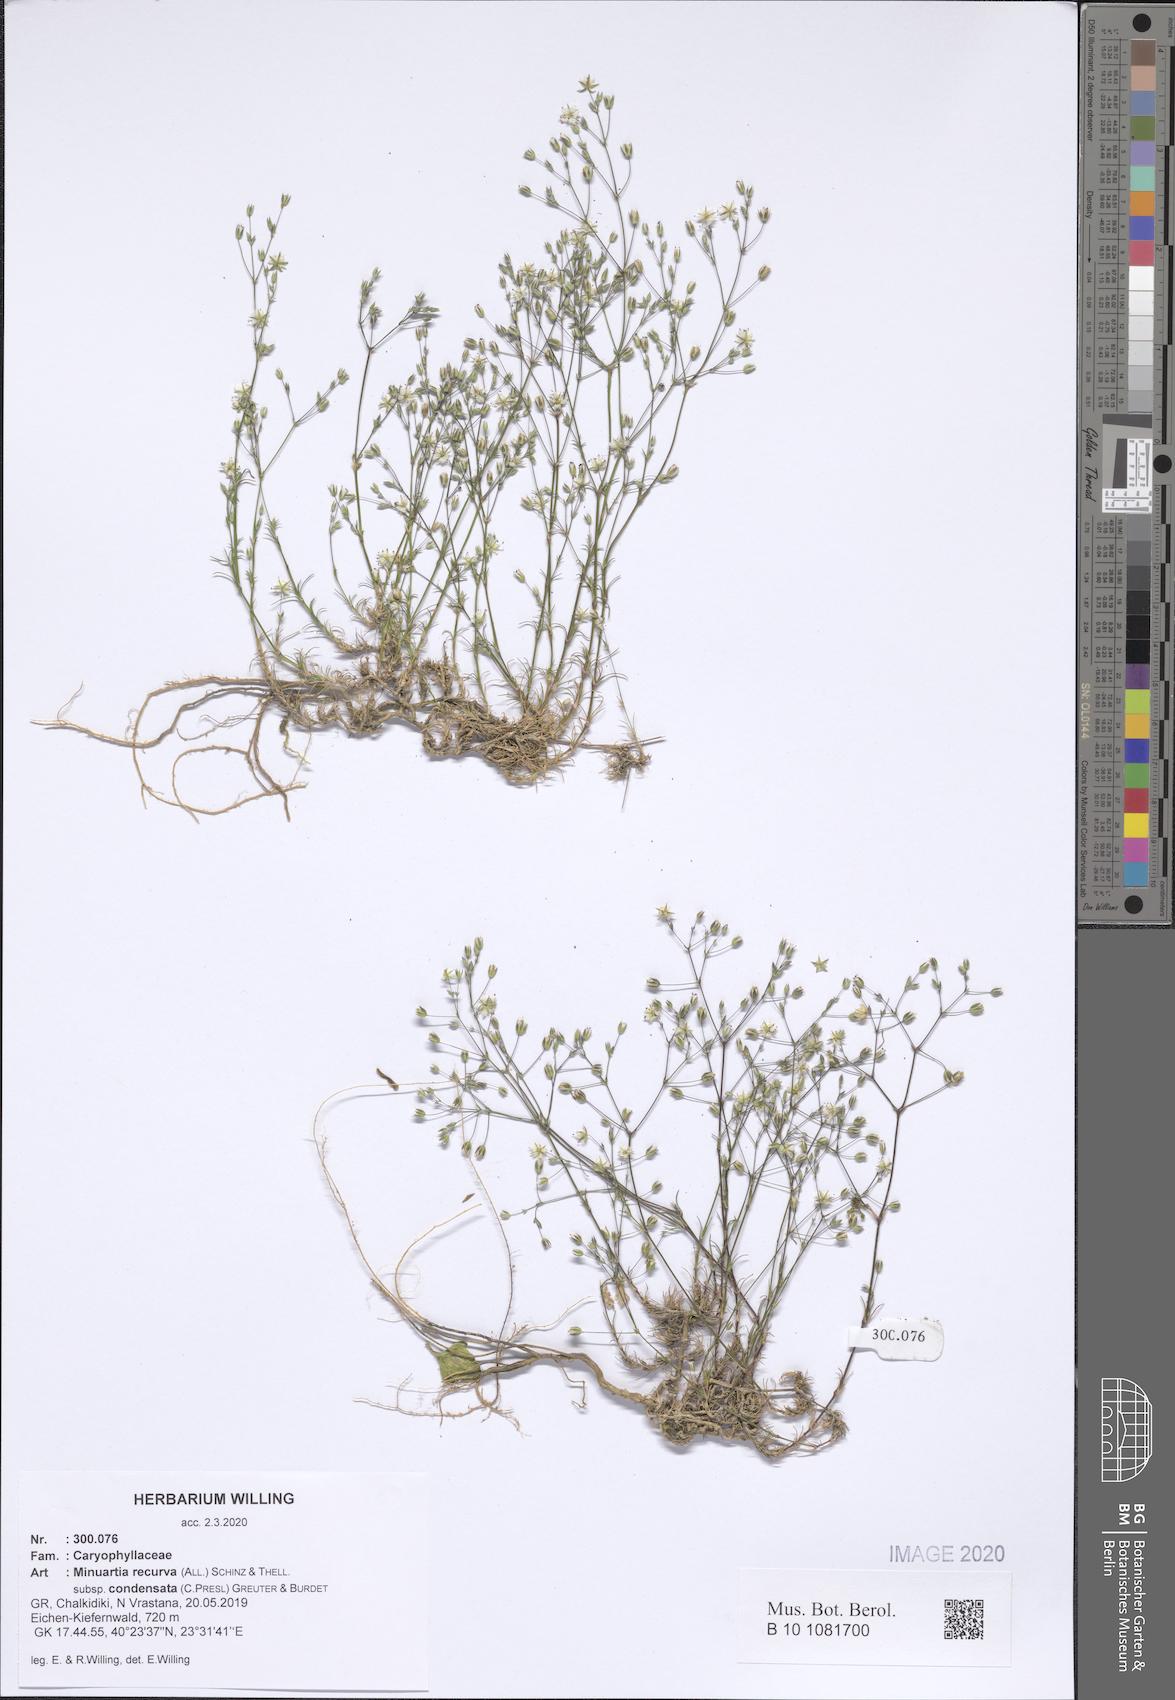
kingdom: Plantae
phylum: Tracheophyta
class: Magnoliopsida
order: Caryophyllales
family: Caryophyllaceae
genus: Minuartia
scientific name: Minuartia recurva
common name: Recurved sandwort
